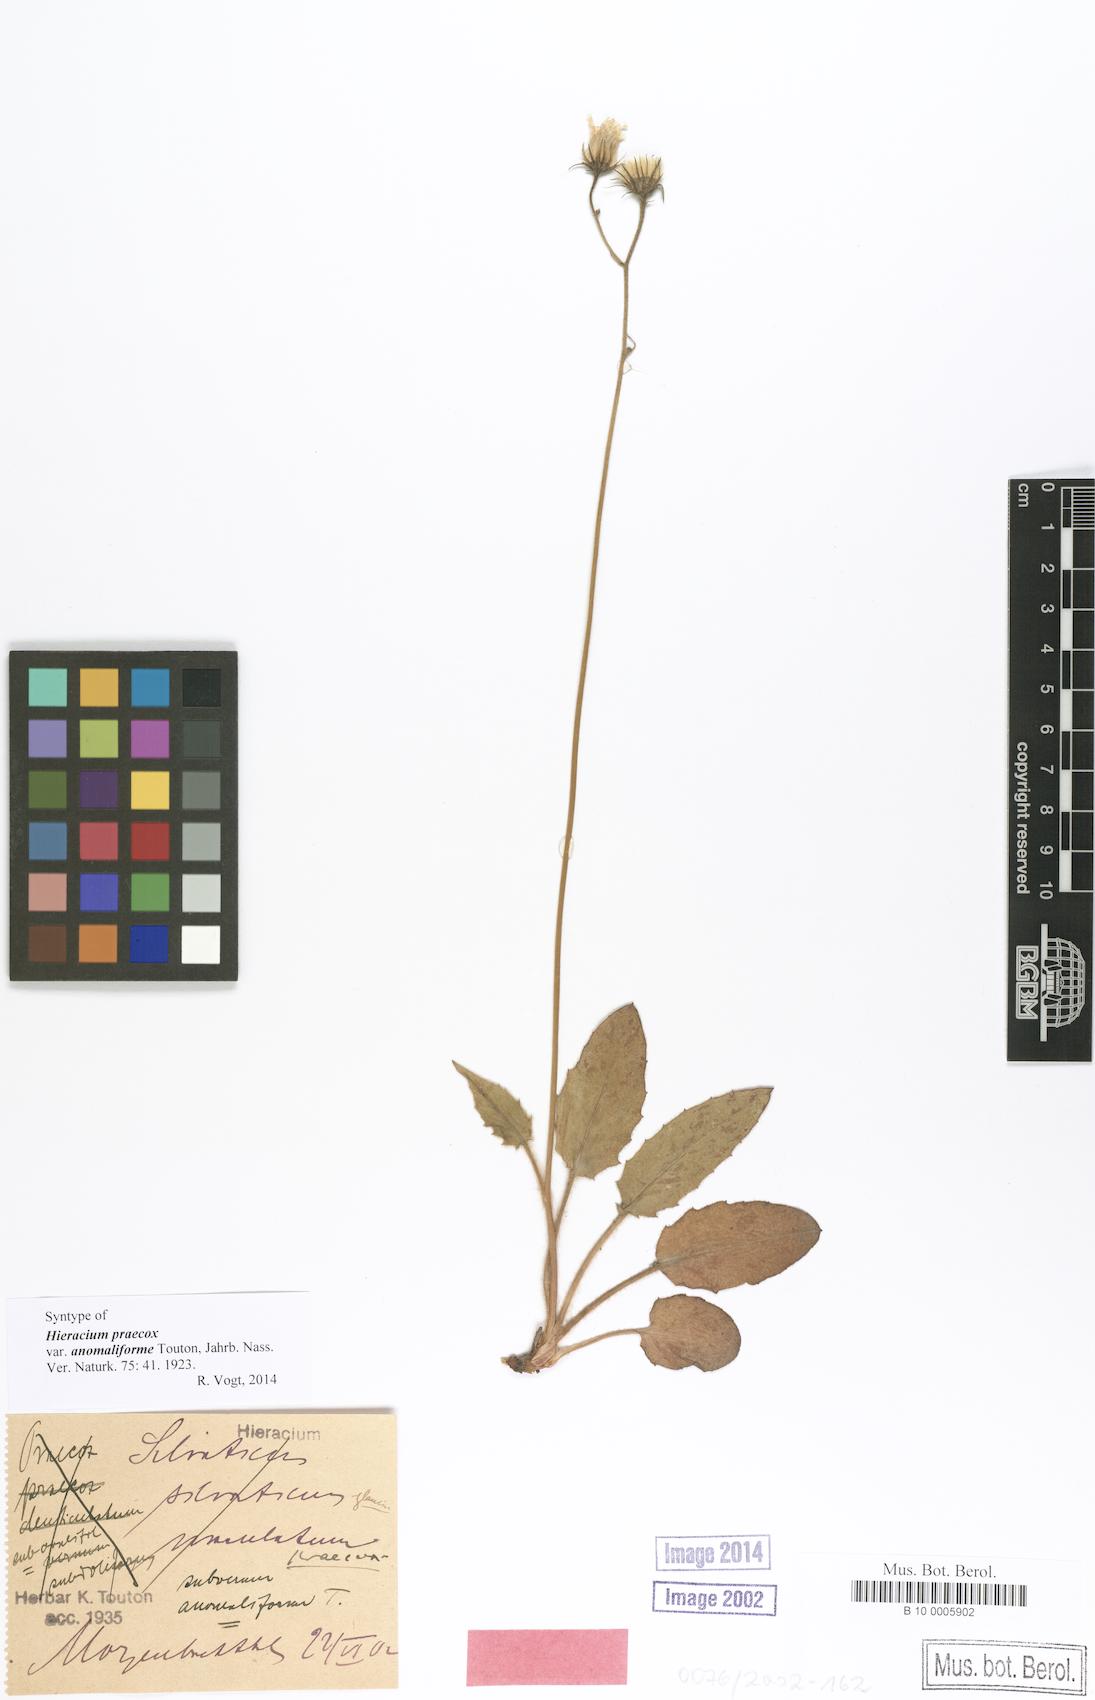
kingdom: Plantae
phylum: Tracheophyta
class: Magnoliopsida
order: Asterales
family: Asteraceae
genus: Hieracium
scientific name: Hieracium praecox
